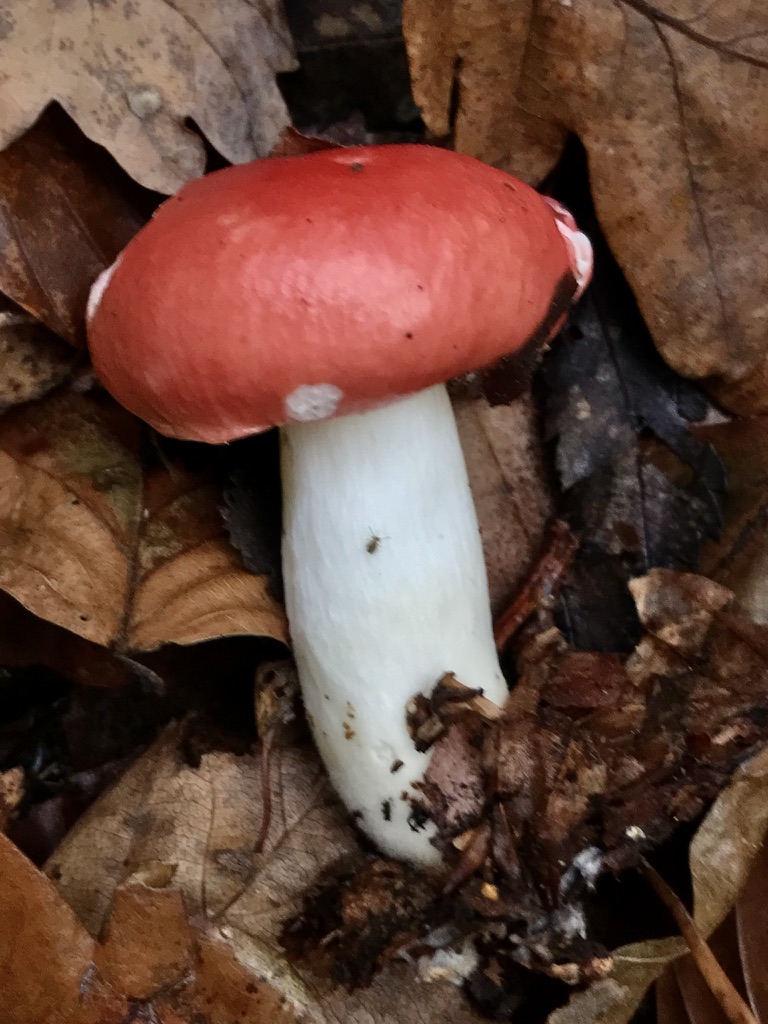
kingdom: Fungi
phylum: Basidiomycota
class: Agaricomycetes
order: Russulales
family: Russulaceae
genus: Russula
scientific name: Russula nobilis
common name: lille gift-skørhat
